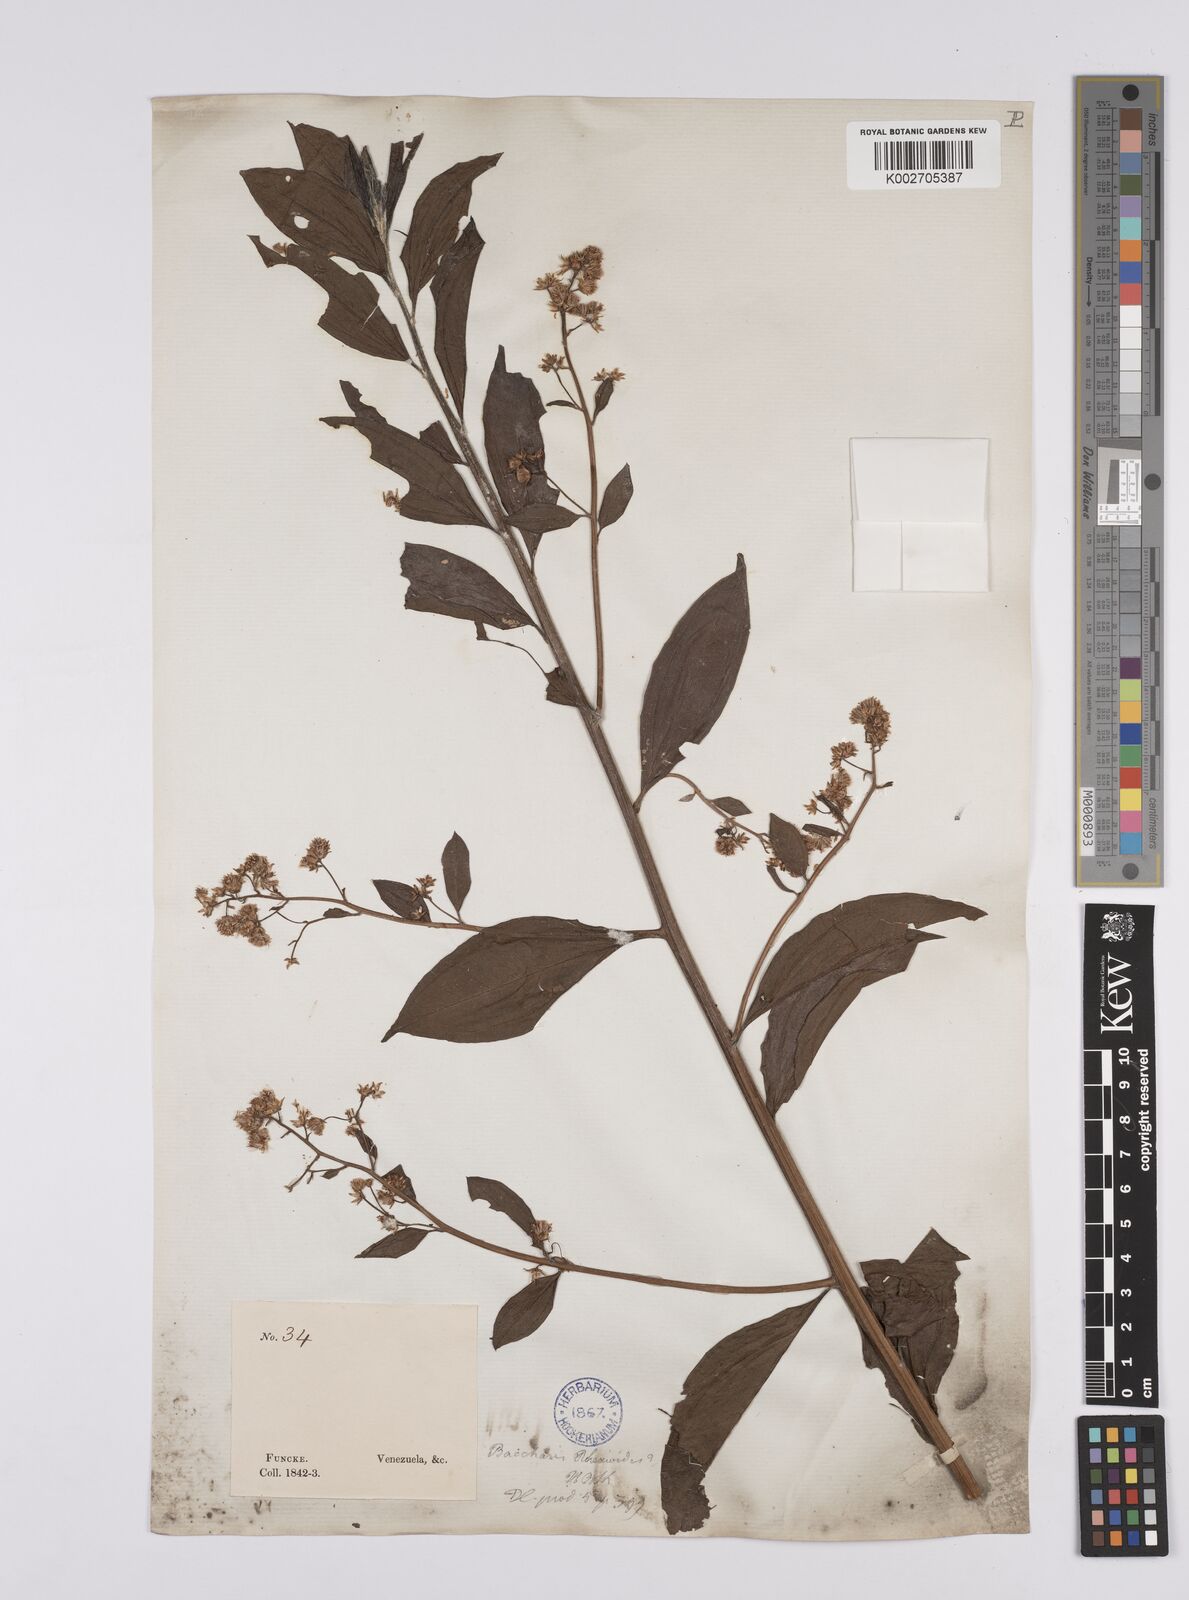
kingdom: Plantae
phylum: Tracheophyta
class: Magnoliopsida
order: Asterales
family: Asteraceae
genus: Baccharis
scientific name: Baccharis trinervis
